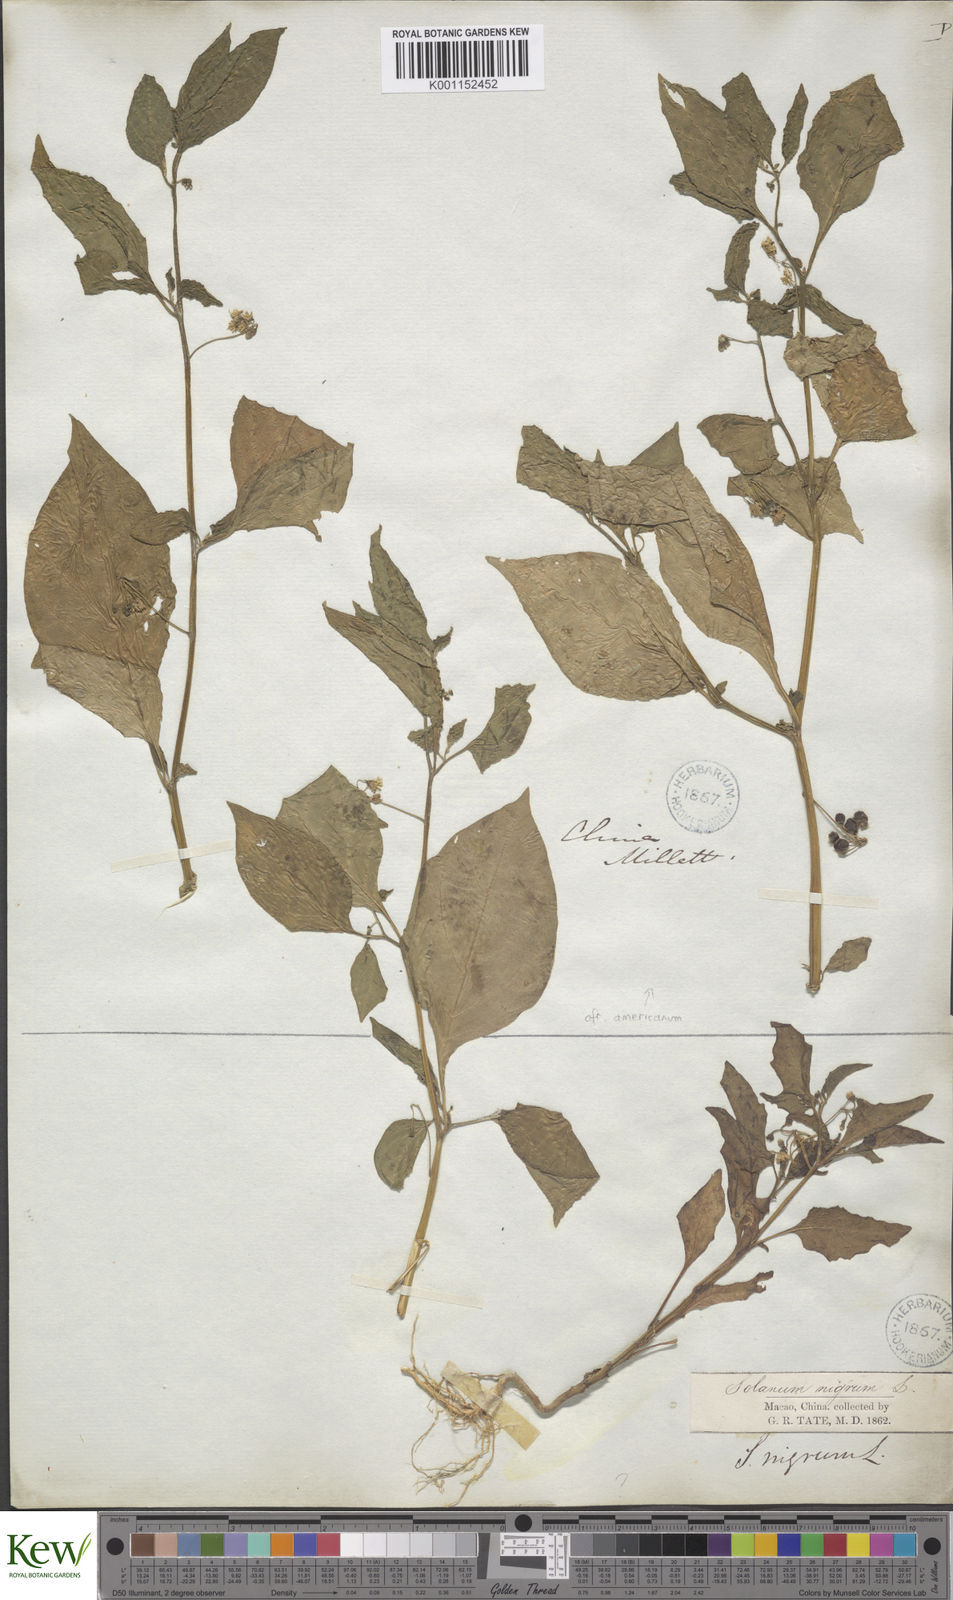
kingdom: Plantae
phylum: Tracheophyta
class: Magnoliopsida
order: Solanales
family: Solanaceae
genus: Solanum
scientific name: Solanum americanum
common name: American black nightshade
